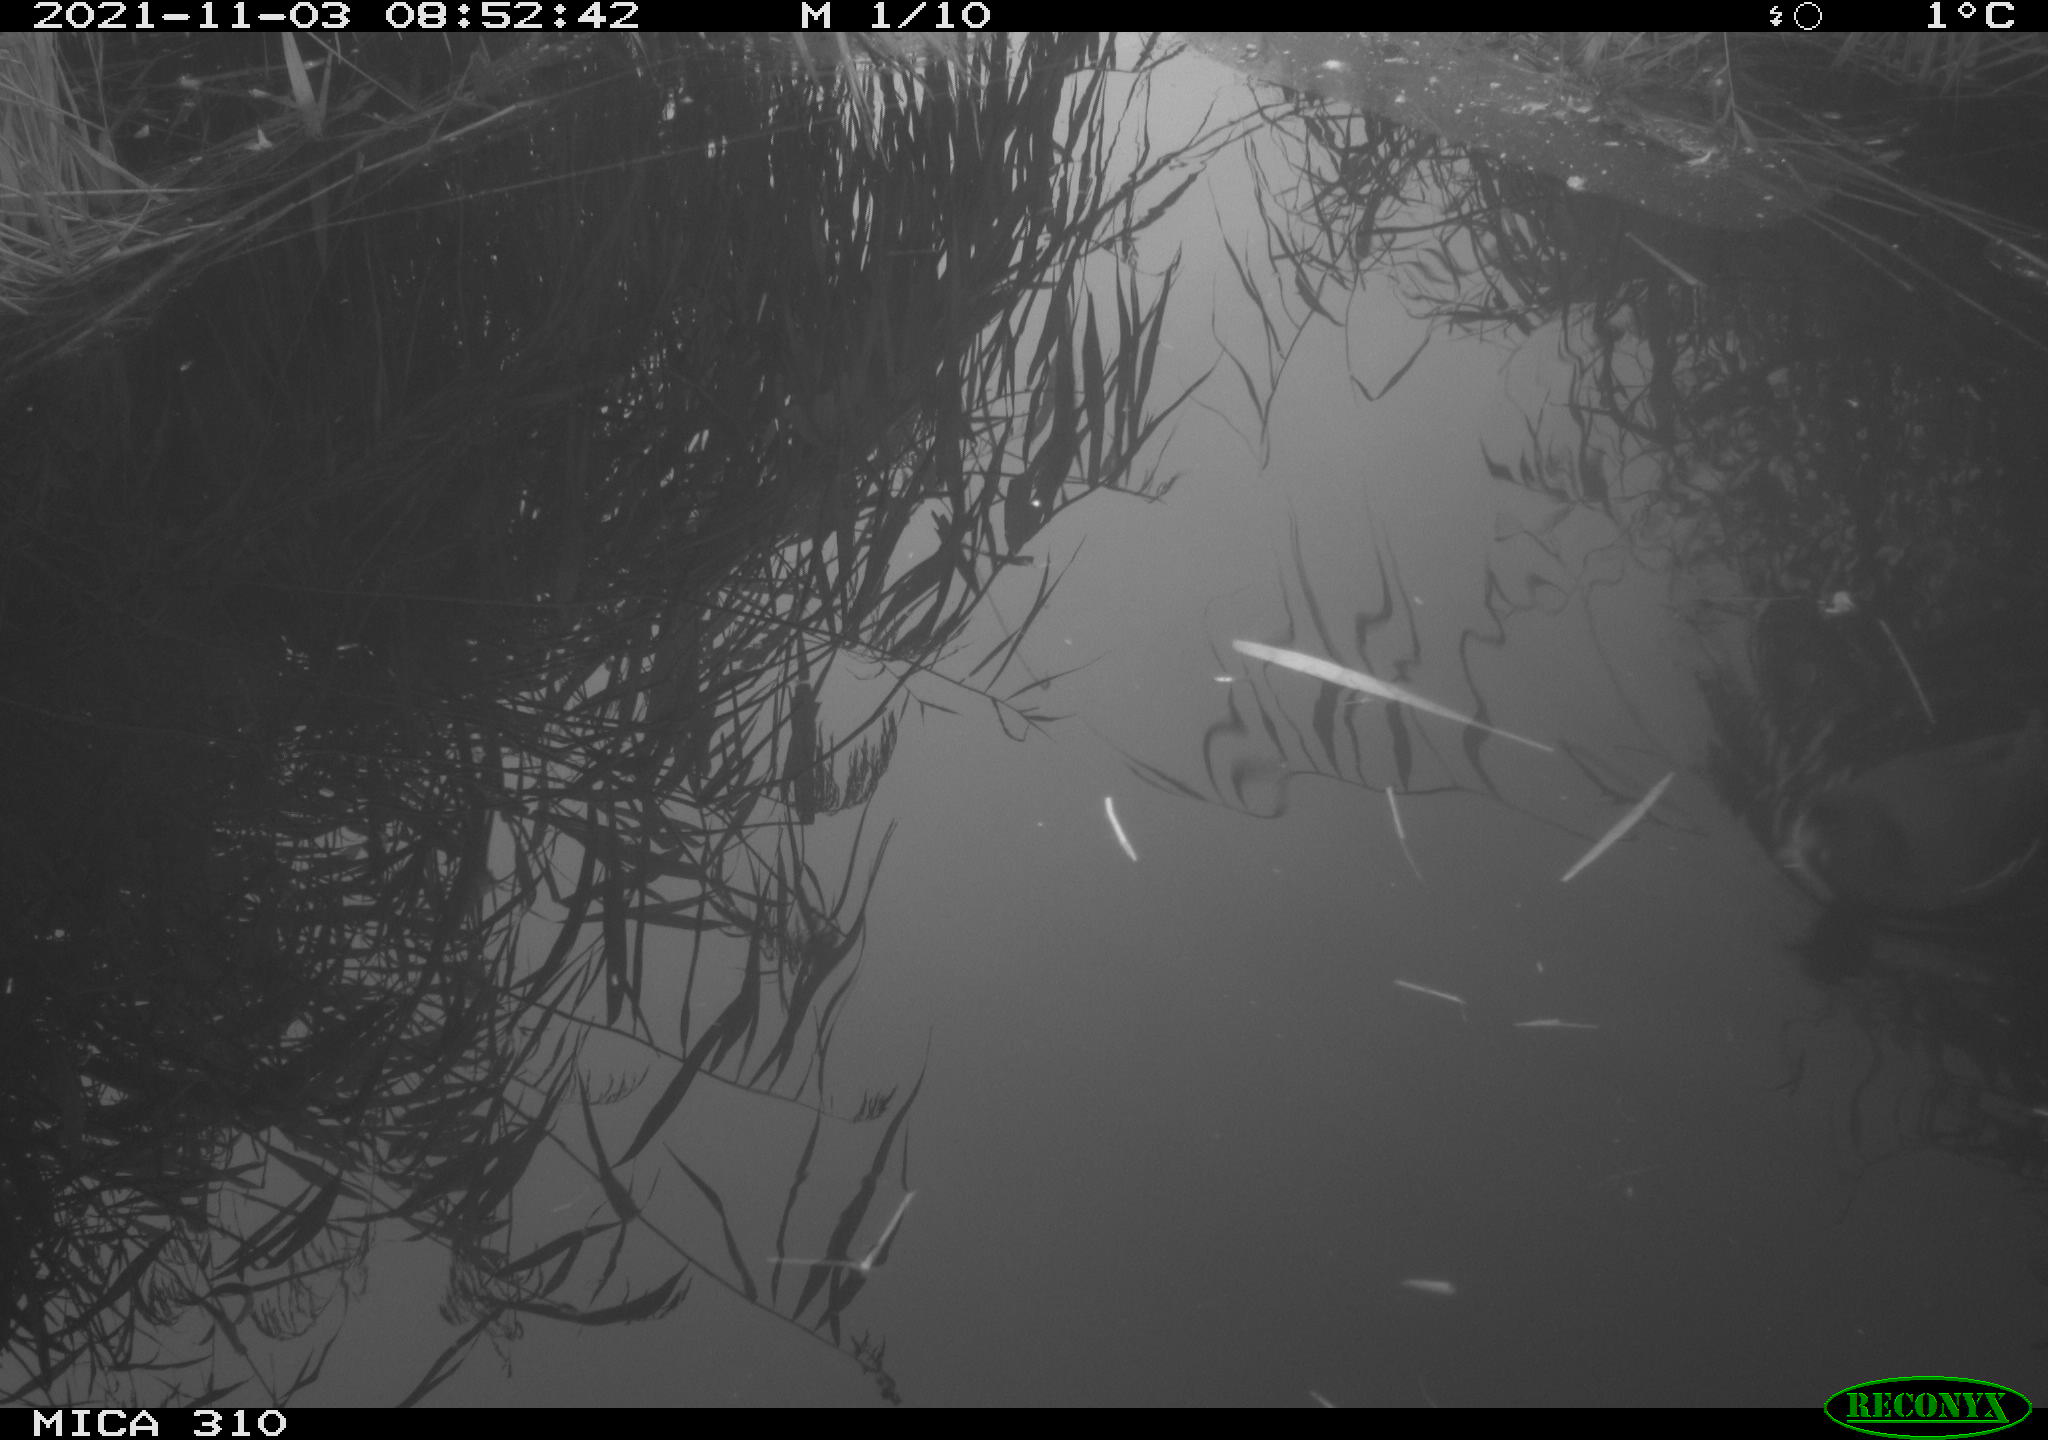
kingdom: Animalia
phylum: Chordata
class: Aves
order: Gruiformes
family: Rallidae
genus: Gallinula
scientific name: Gallinula chloropus
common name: Common moorhen
